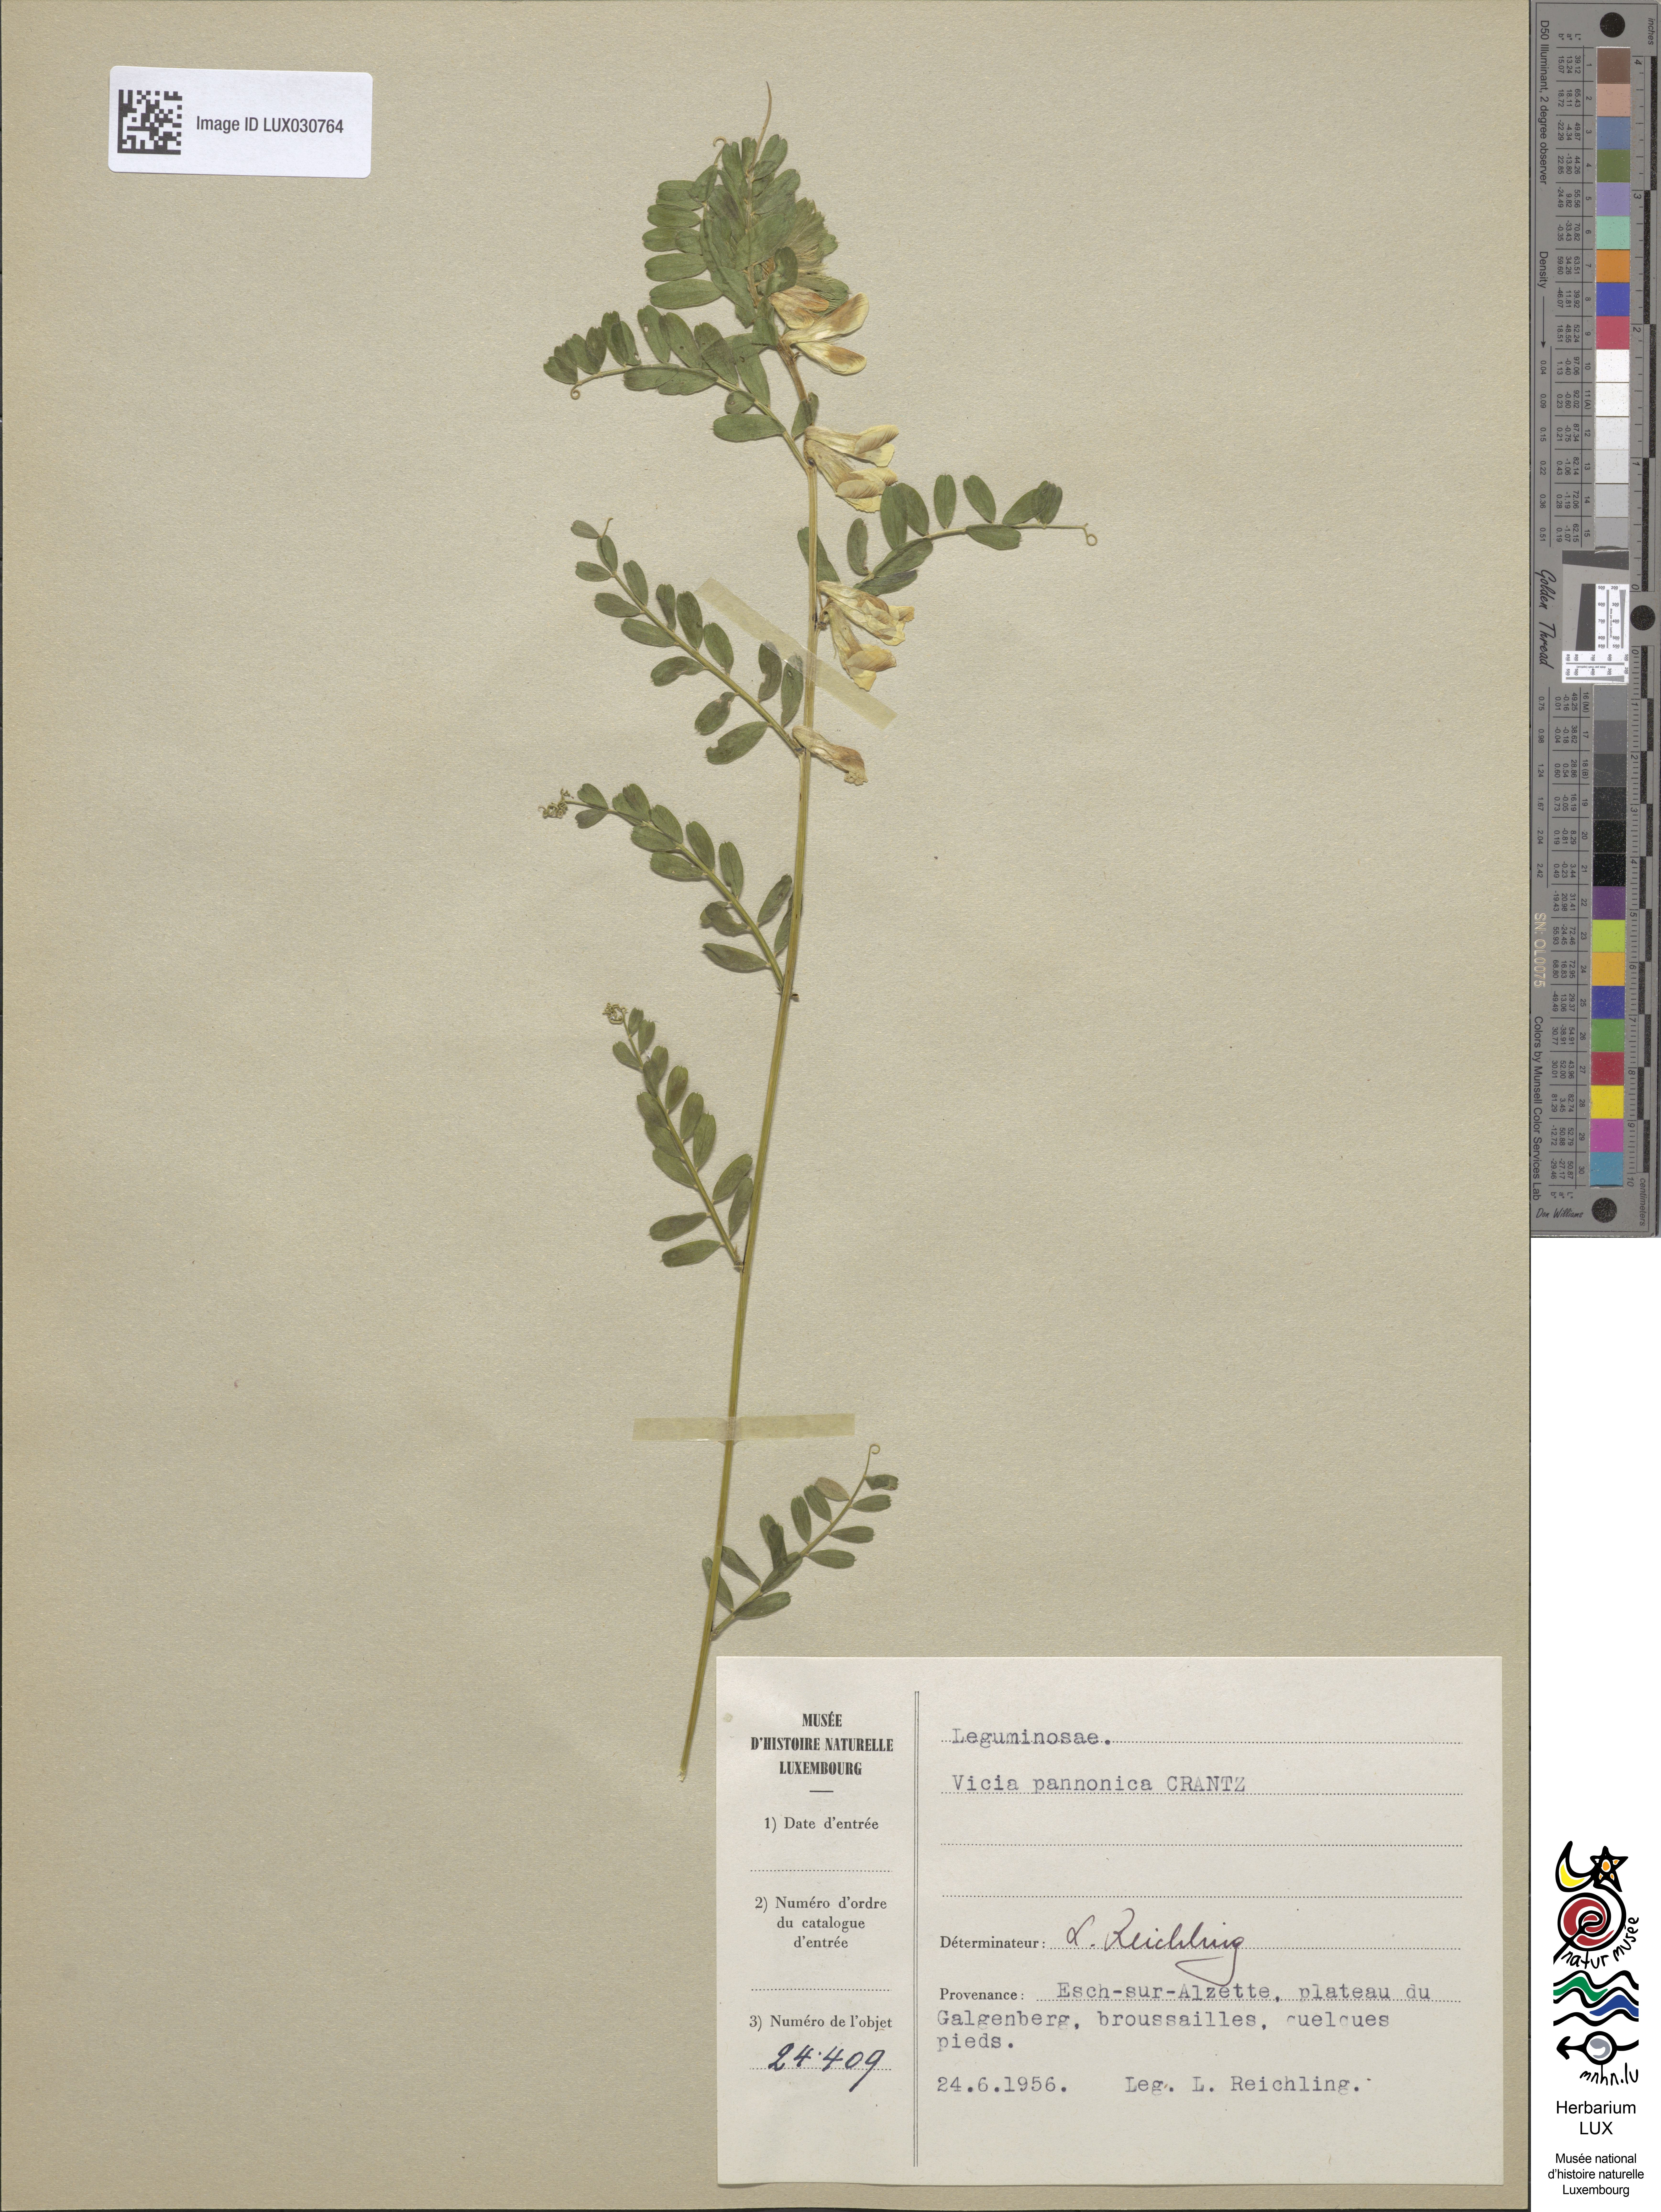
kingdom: Plantae
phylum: Tracheophyta
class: Magnoliopsida
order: Fabales
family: Fabaceae
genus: Vicia
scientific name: Vicia pannonica
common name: Hungarian vetch
